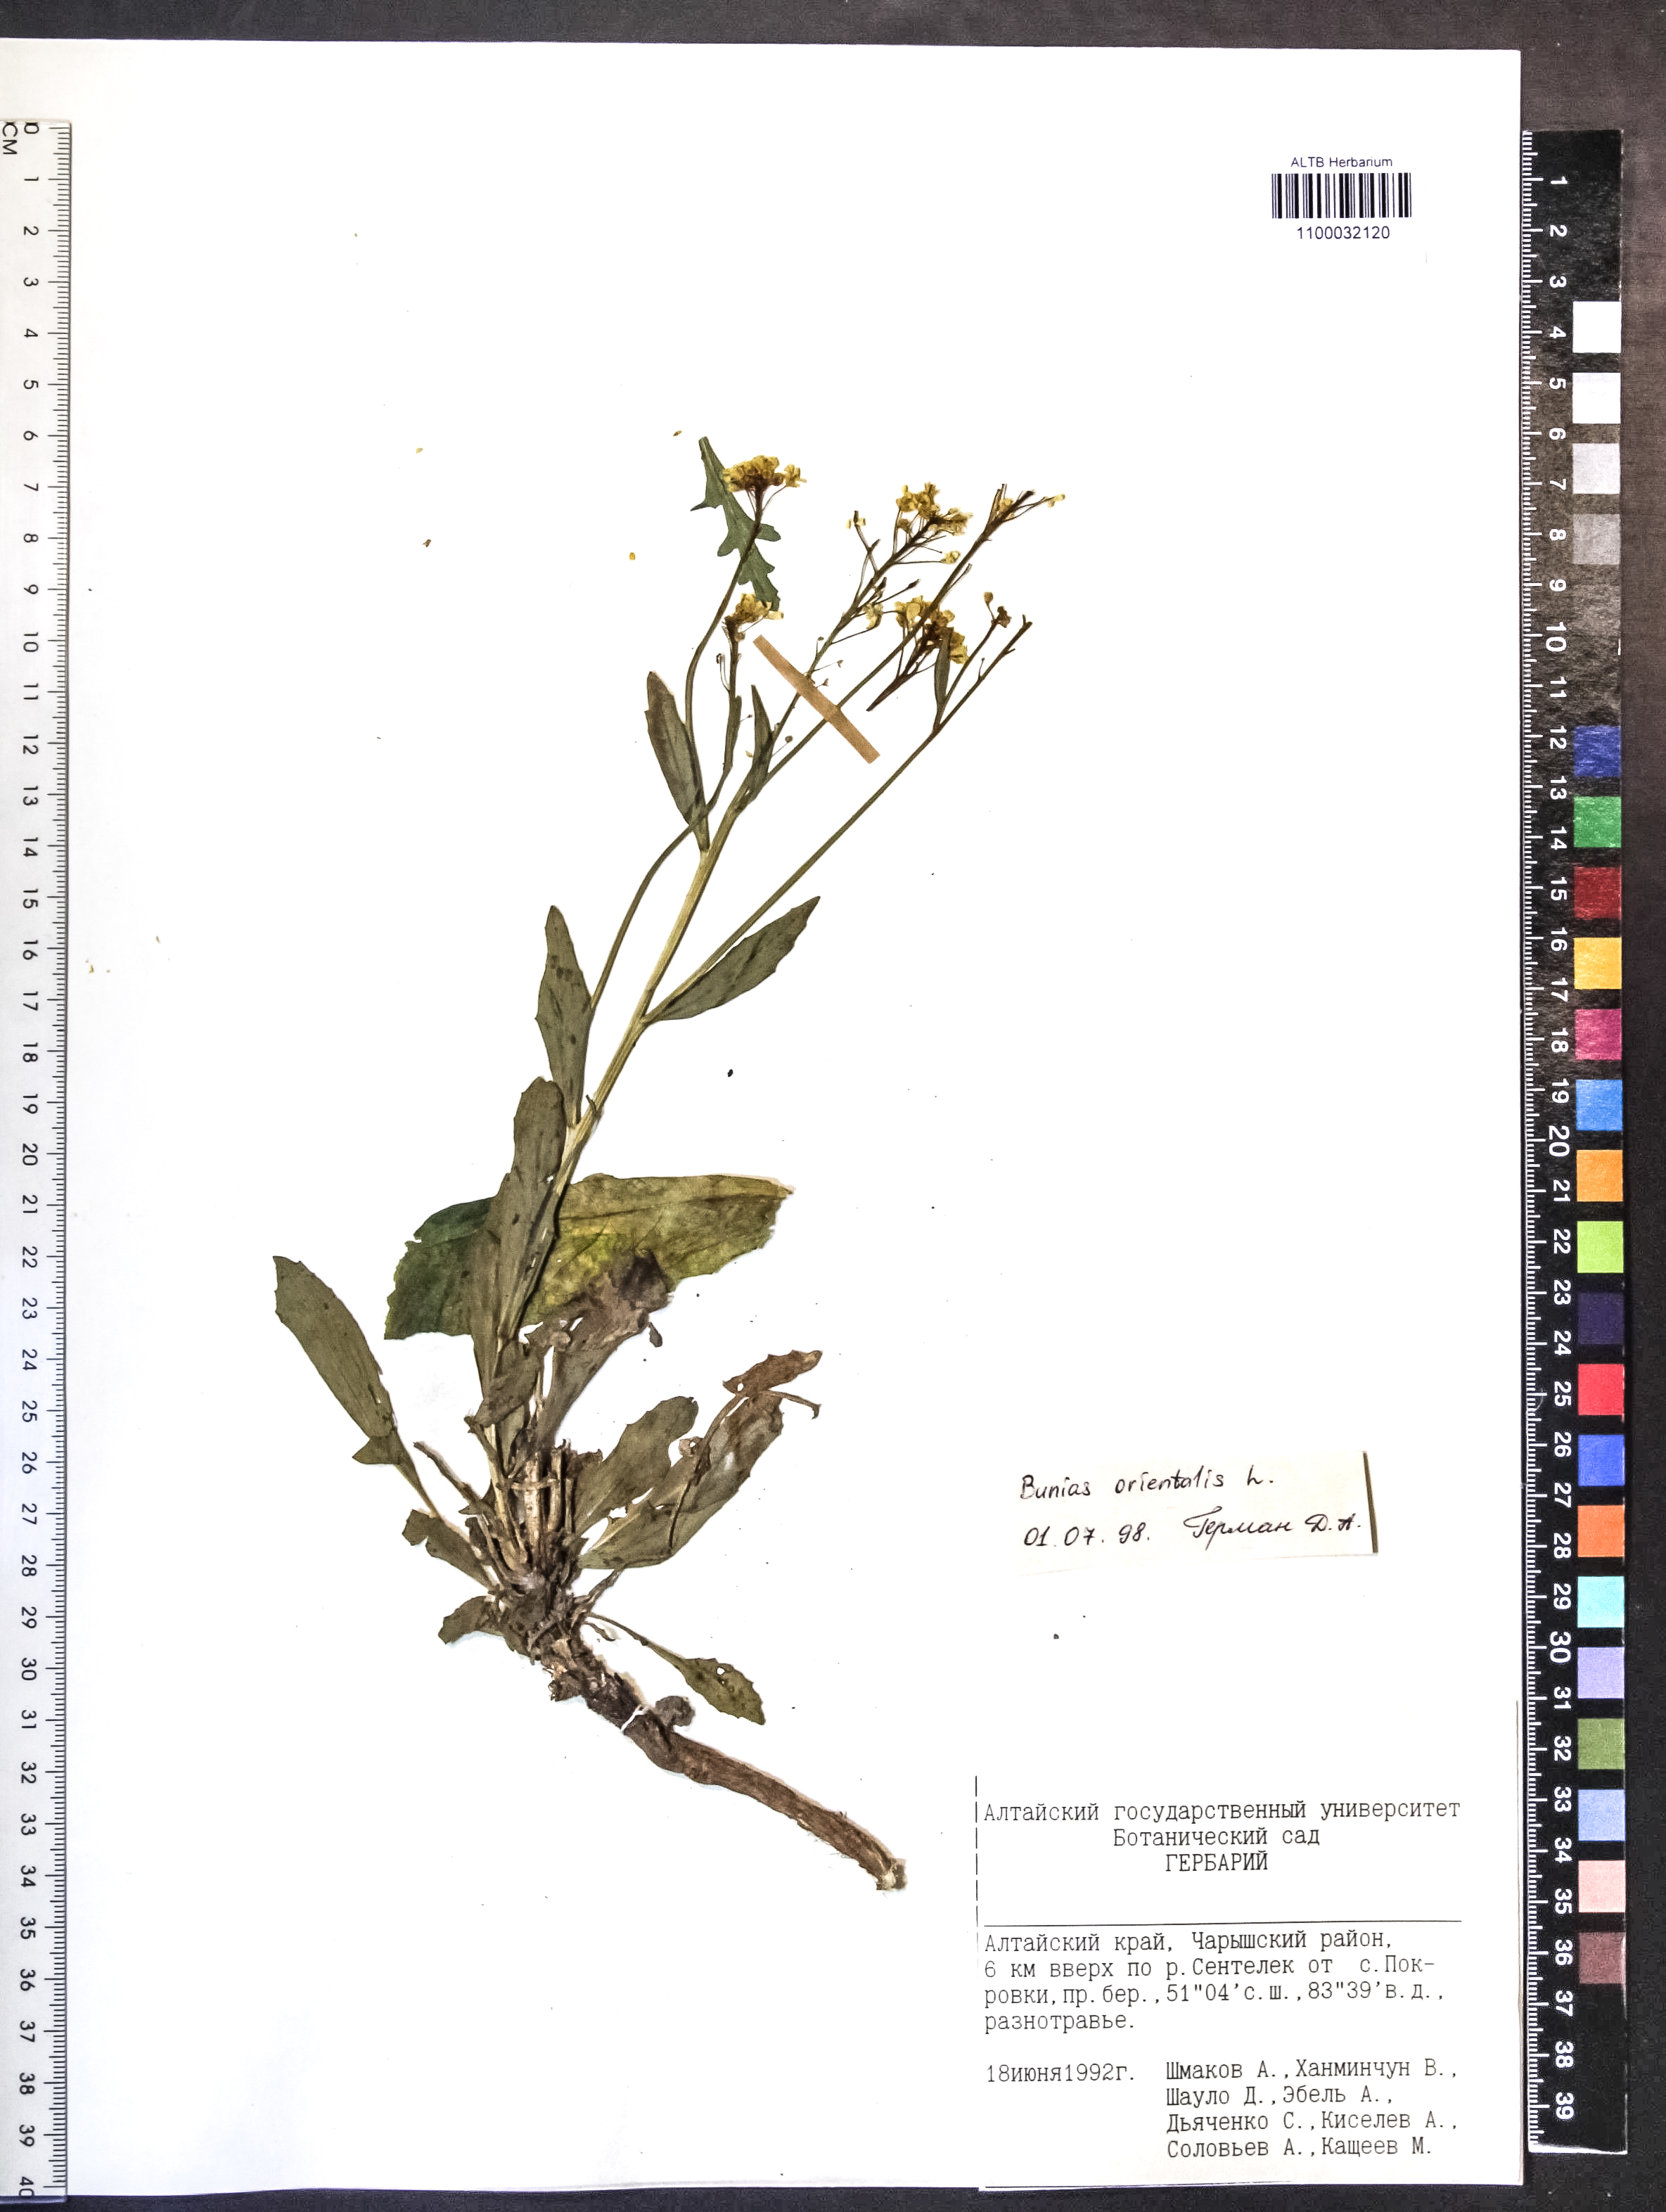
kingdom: Plantae
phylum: Tracheophyta
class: Magnoliopsida
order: Brassicales
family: Brassicaceae
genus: Bunias
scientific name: Bunias orientalis
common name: Warty-cabbage
